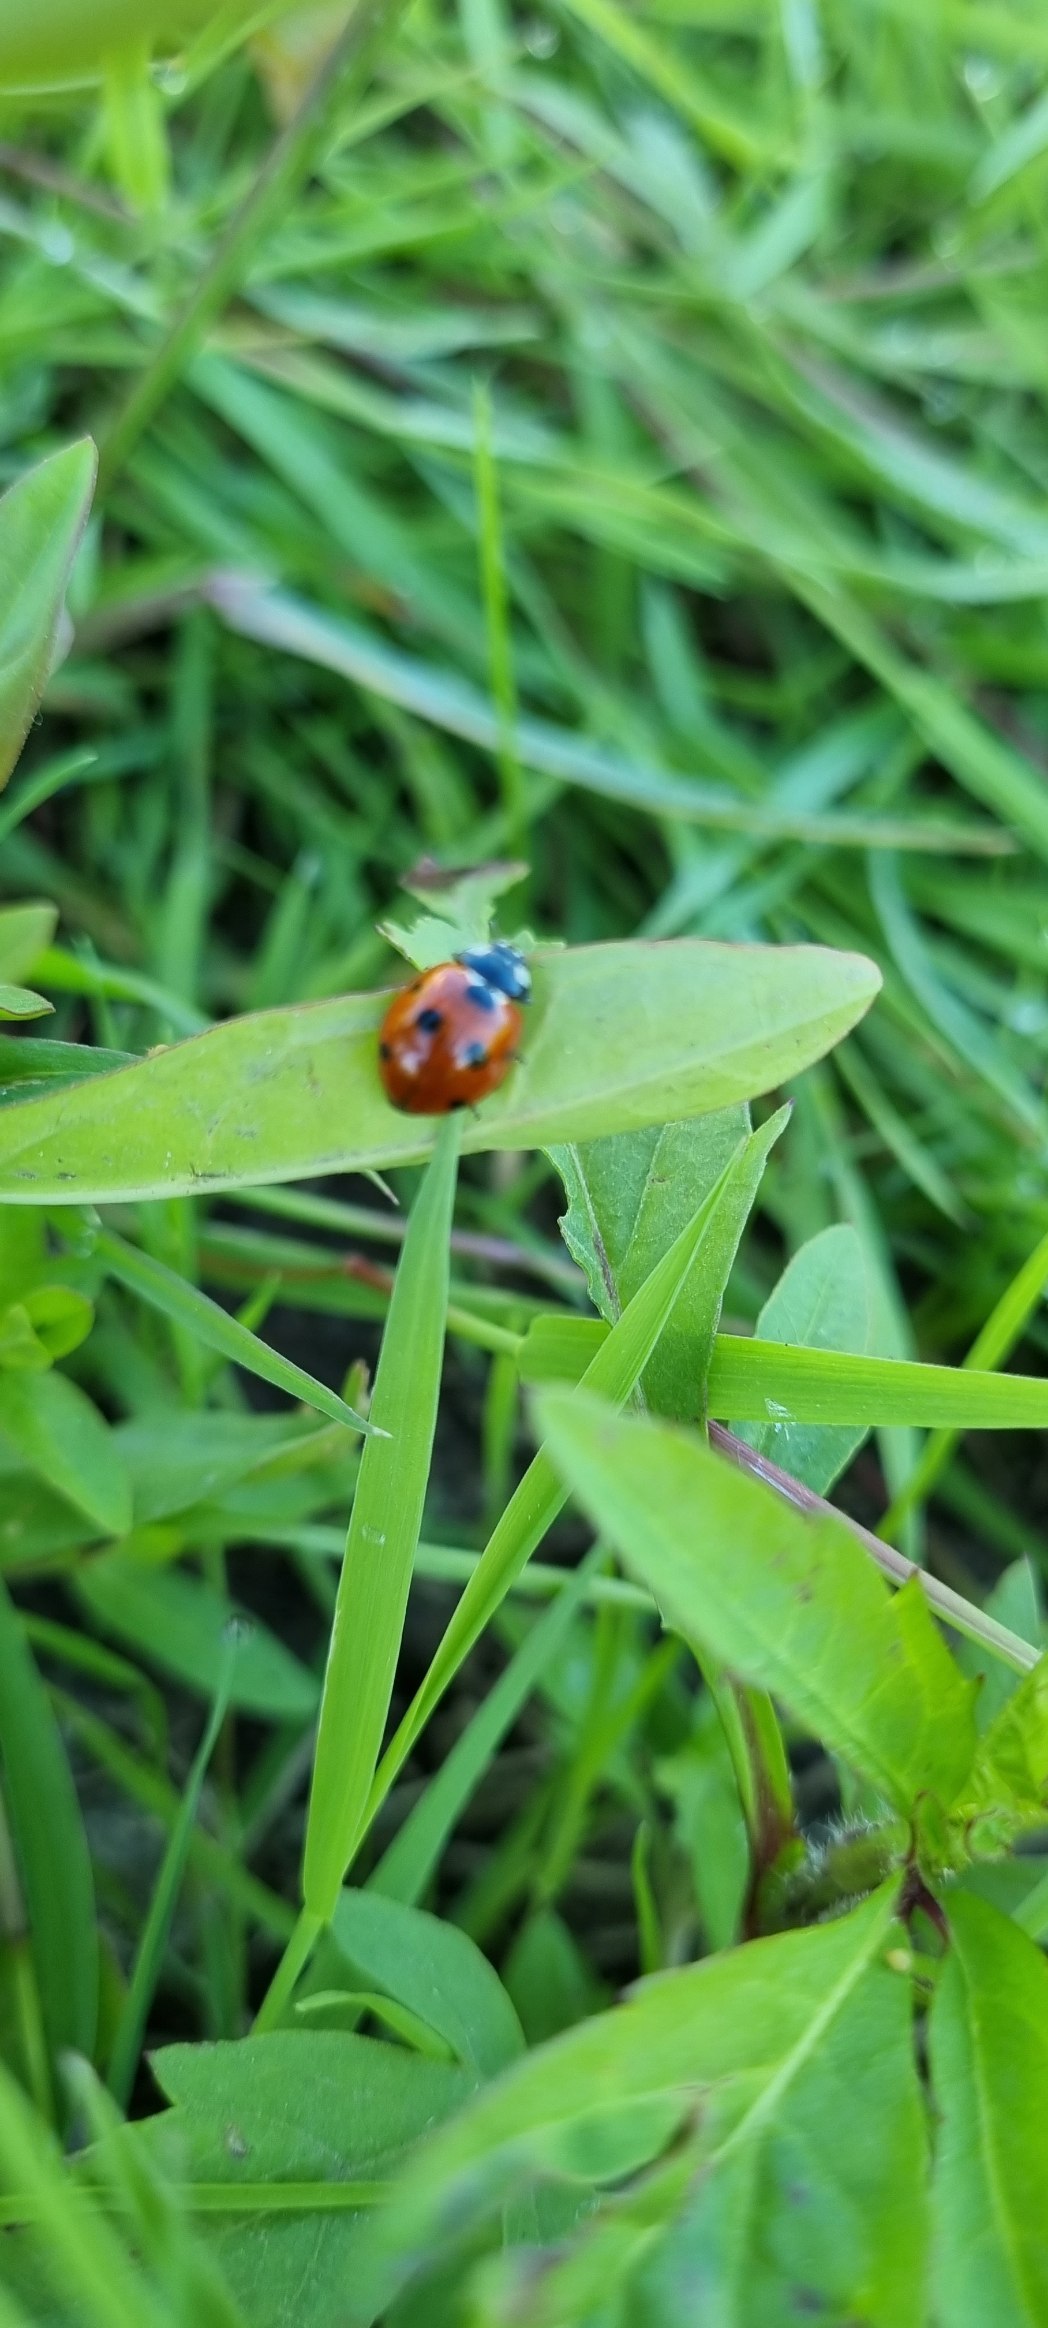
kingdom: Animalia
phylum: Arthropoda
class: Insecta
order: Coleoptera
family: Coccinellidae
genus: Coccinella
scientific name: Coccinella septempunctata
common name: Syvplettet mariehøne
